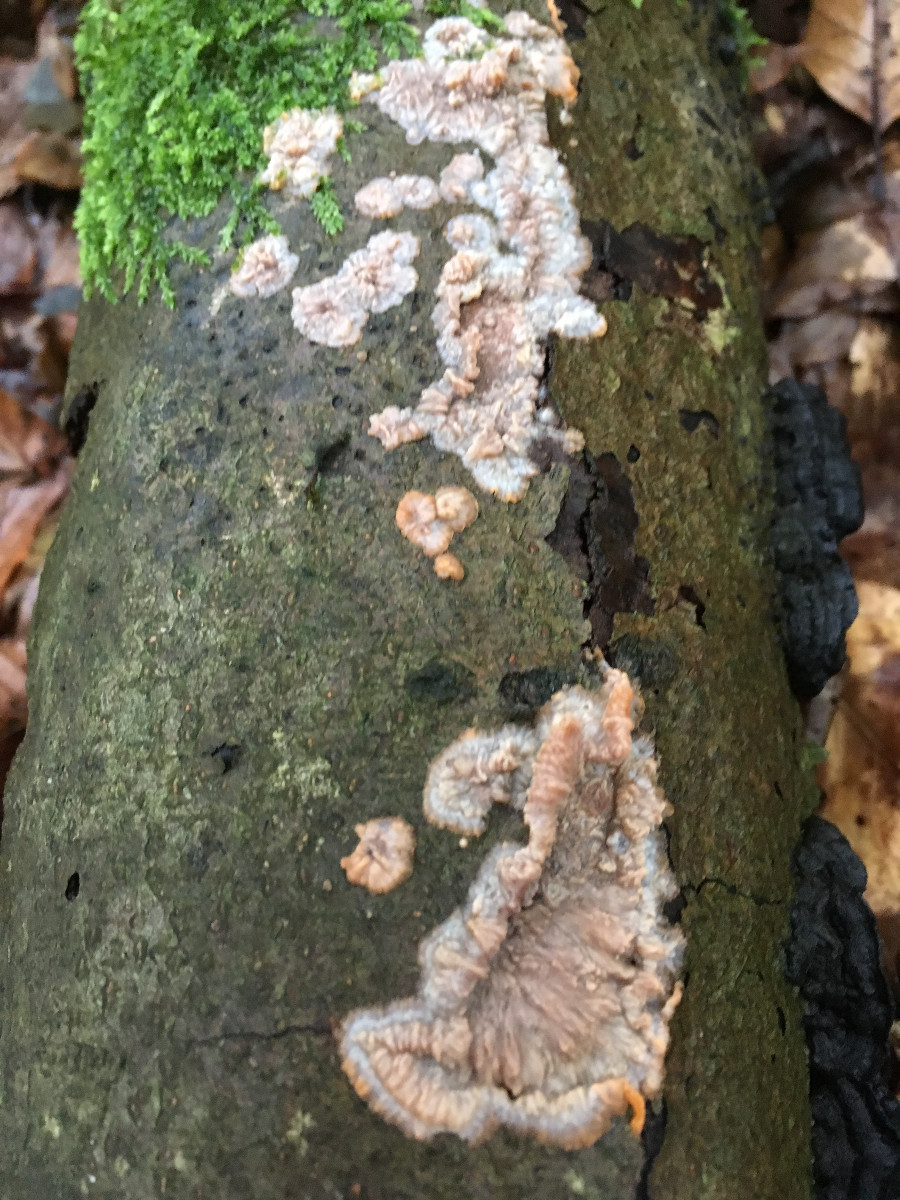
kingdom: Fungi
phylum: Basidiomycota
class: Agaricomycetes
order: Polyporales
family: Meruliaceae
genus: Phlebia
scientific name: Phlebia radiata
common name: stråle-åresvamp
